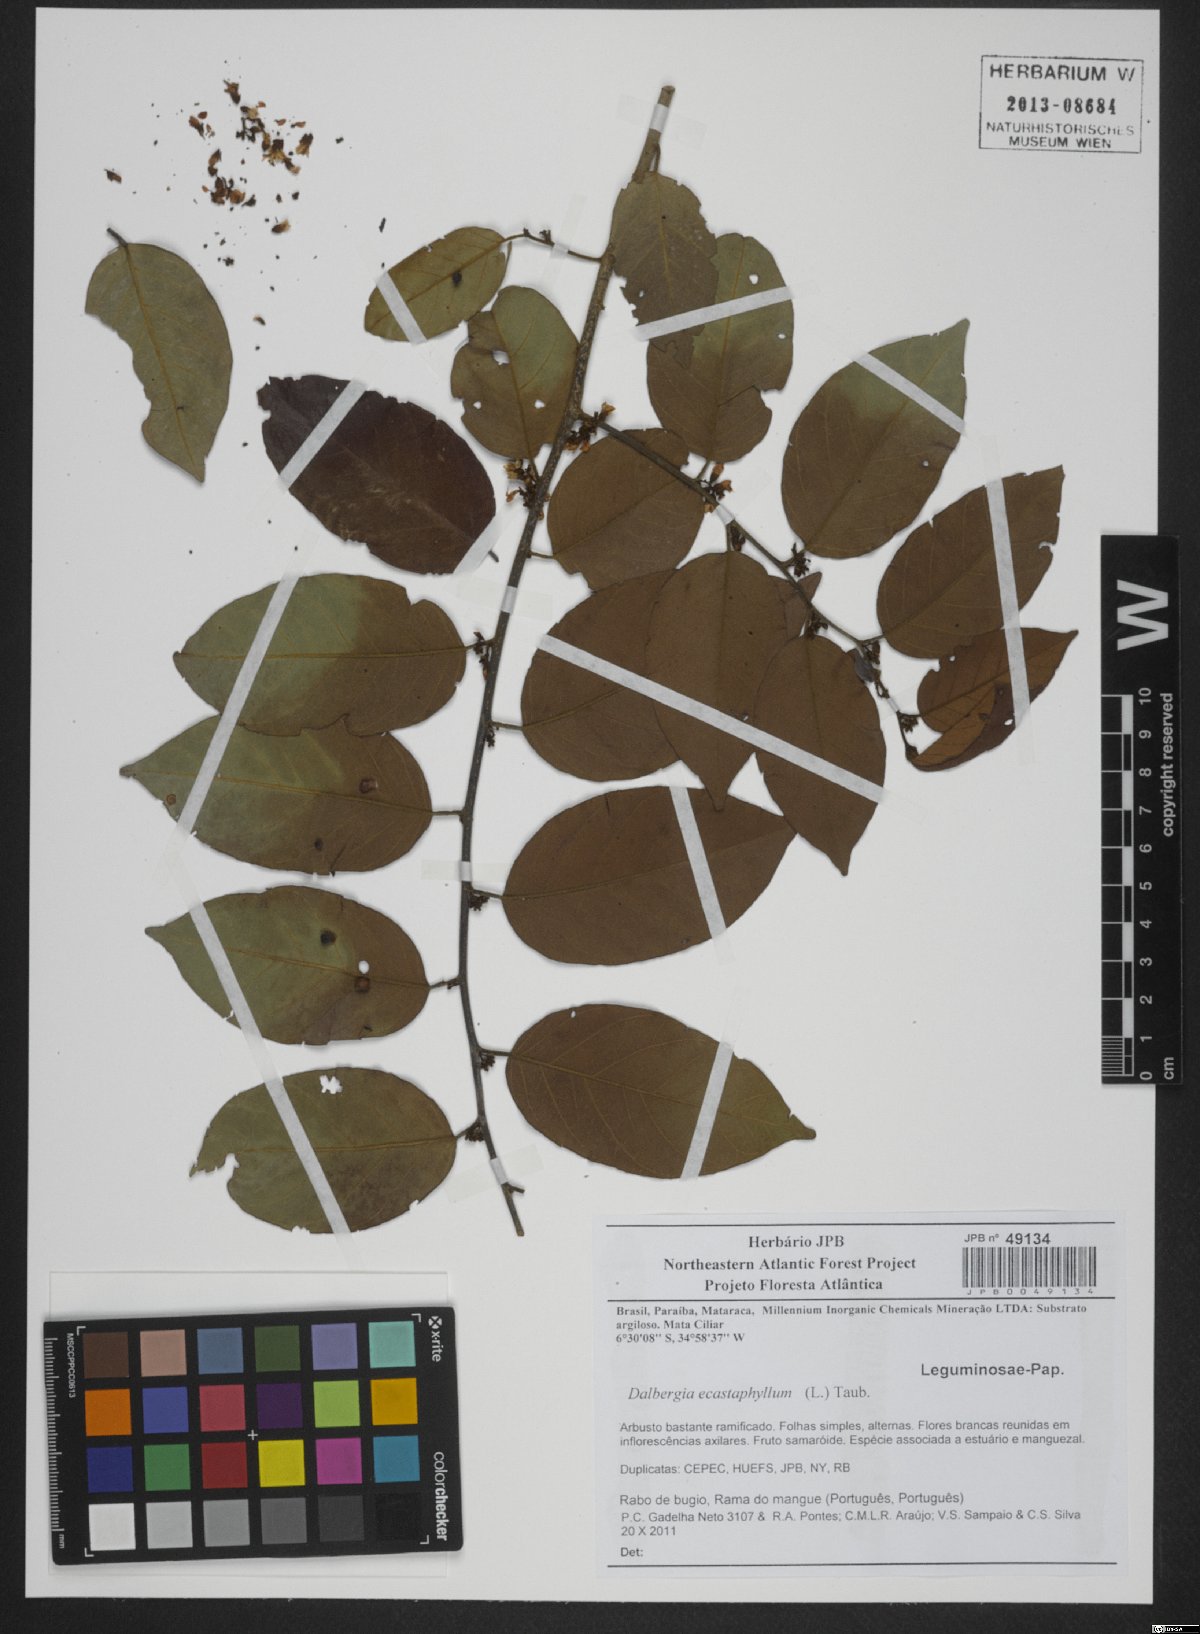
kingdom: Plantae
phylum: Tracheophyta
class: Magnoliopsida
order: Fabales
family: Fabaceae
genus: Dalbergia
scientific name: Dalbergia ecastaphyllum
